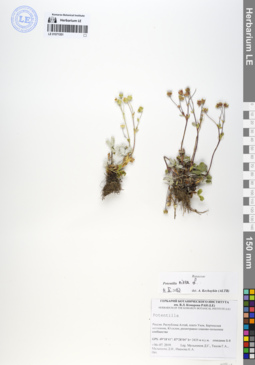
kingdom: Plantae
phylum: Tracheophyta
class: Magnoliopsida
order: Rosales
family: Rosaceae
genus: Potentilla
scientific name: Potentilla nivea
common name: Snow cinquefoil
